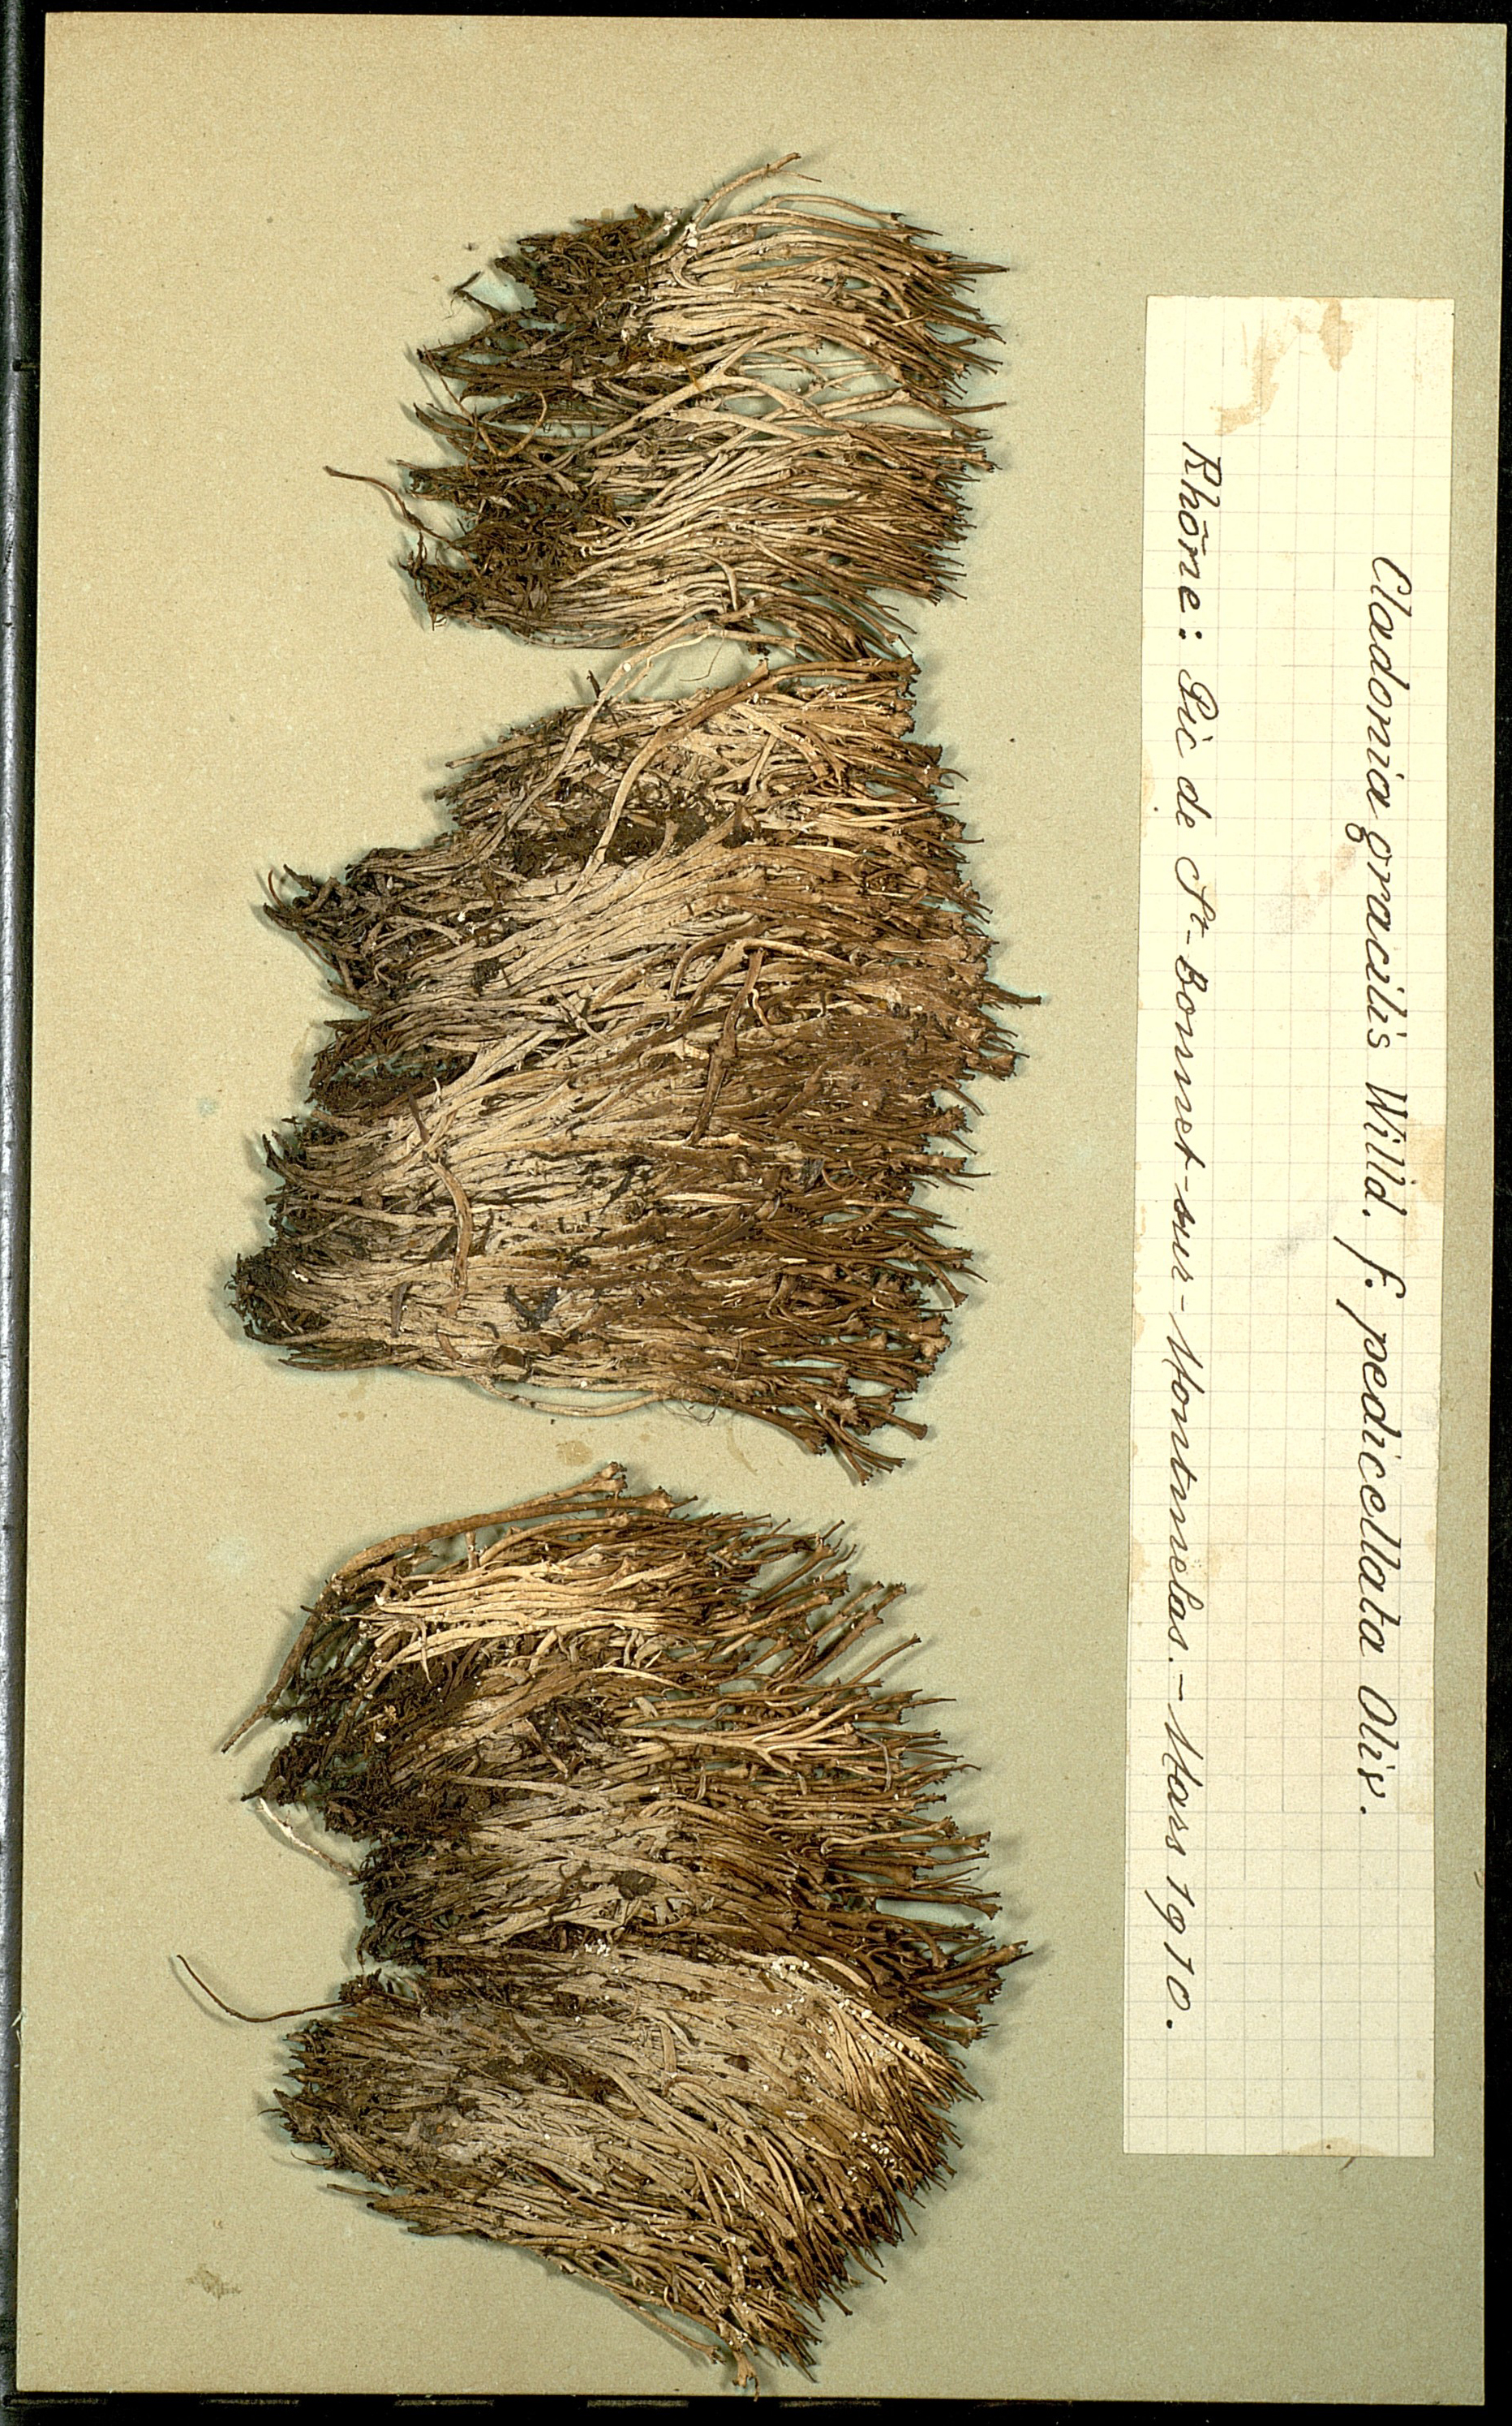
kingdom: Fungi
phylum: Ascomycota
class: Lecanoromycetes
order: Lecanorales
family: Cladoniaceae
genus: Cladonia
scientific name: Cladonia gracilis
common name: Smooth clad lichen
